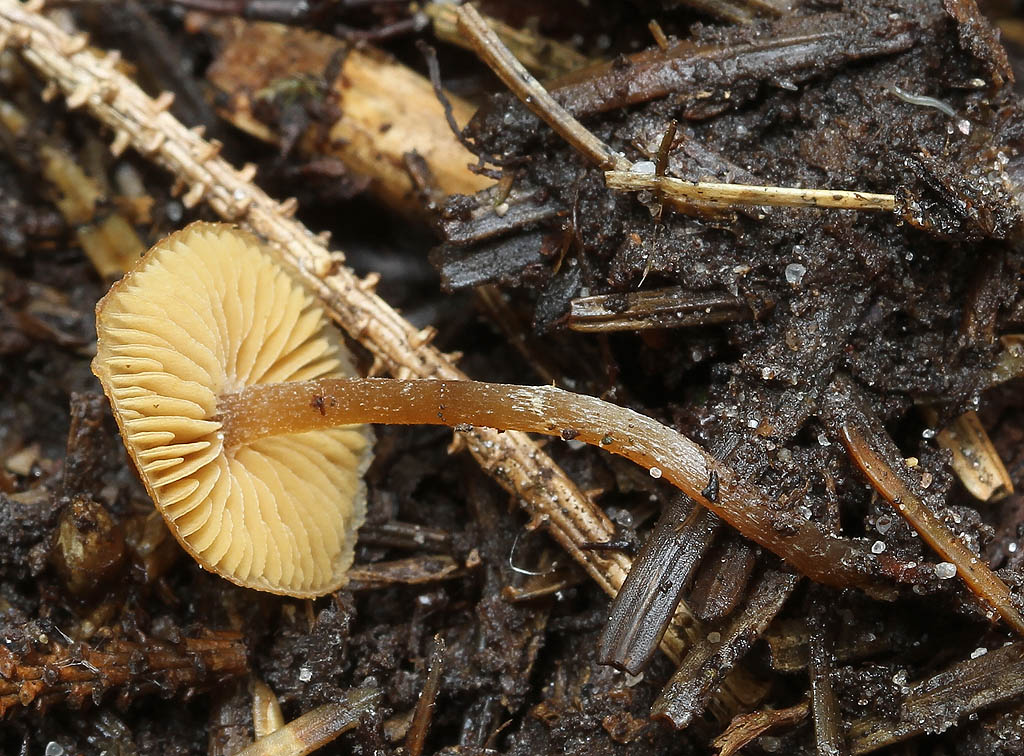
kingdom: Fungi
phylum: Basidiomycota
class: Agaricomycetes
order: Agaricales
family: Hymenogastraceae
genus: Galerina
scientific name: Galerina ampullaceocystis
